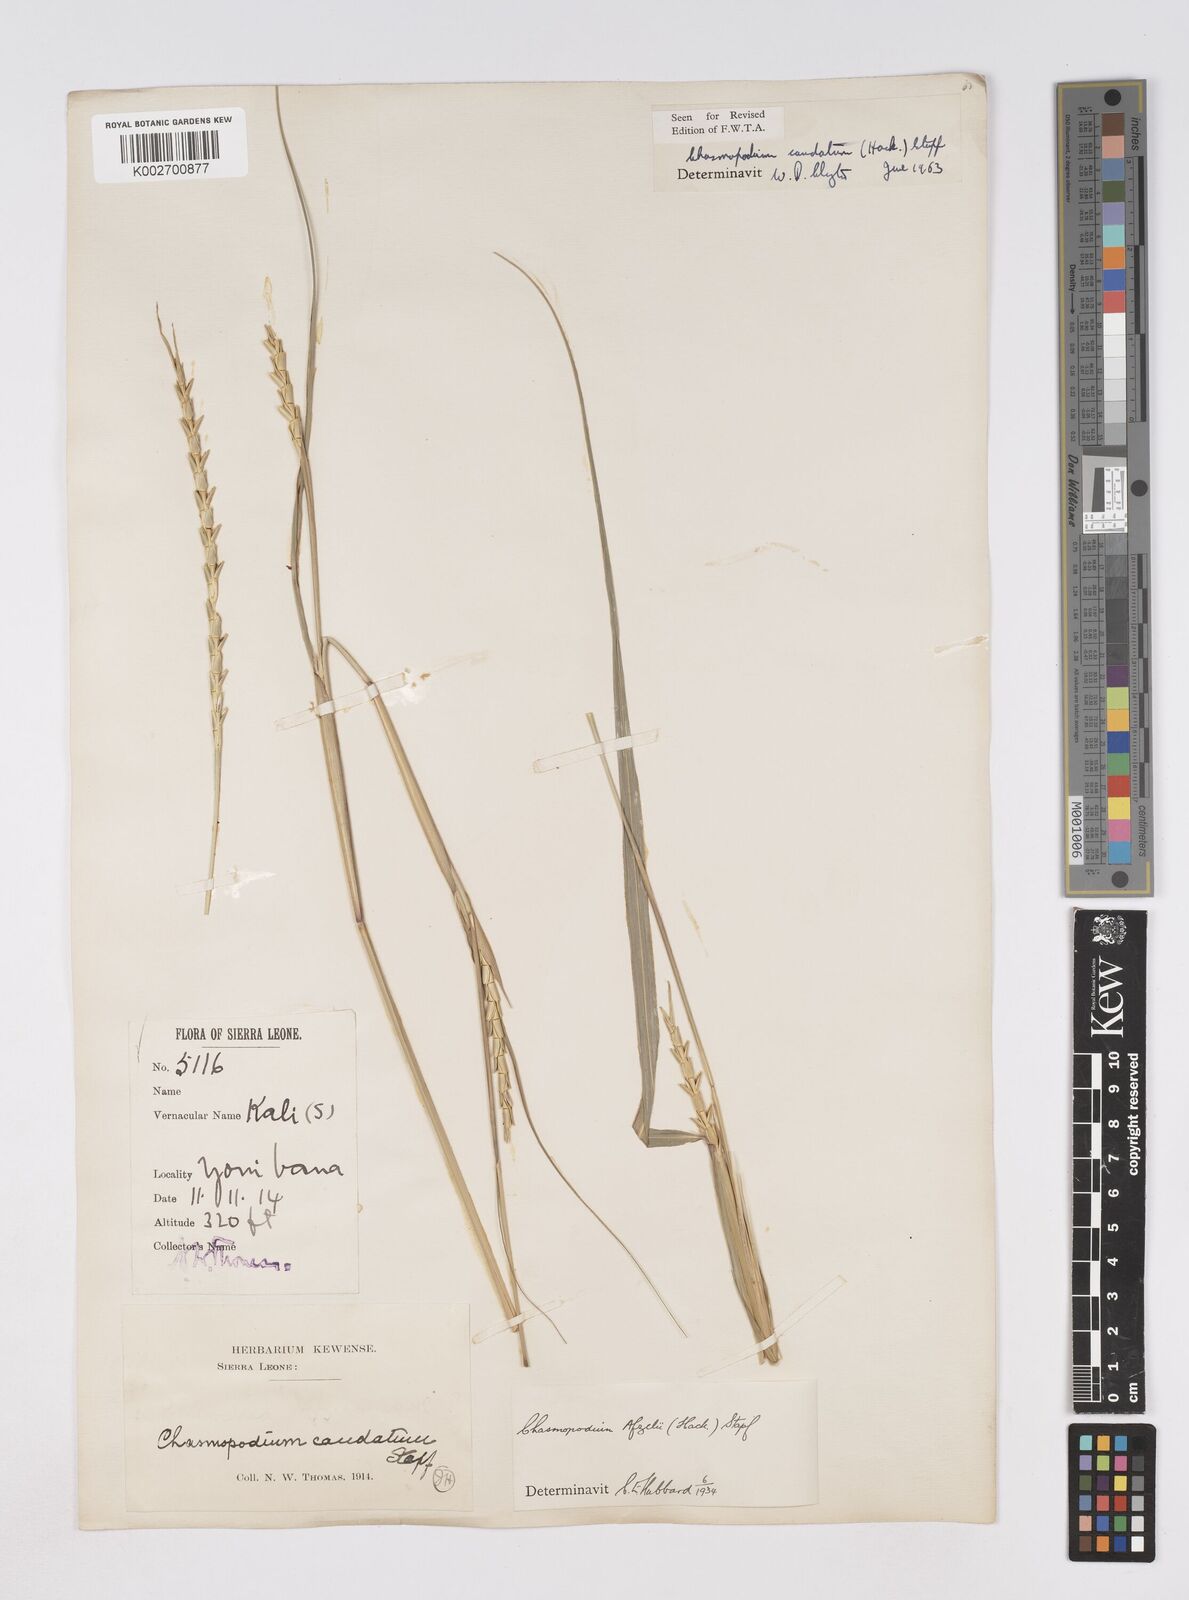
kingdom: Plantae
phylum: Tracheophyta
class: Liliopsida
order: Poales
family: Poaceae
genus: Chasmopodium
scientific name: Chasmopodium caudatum
